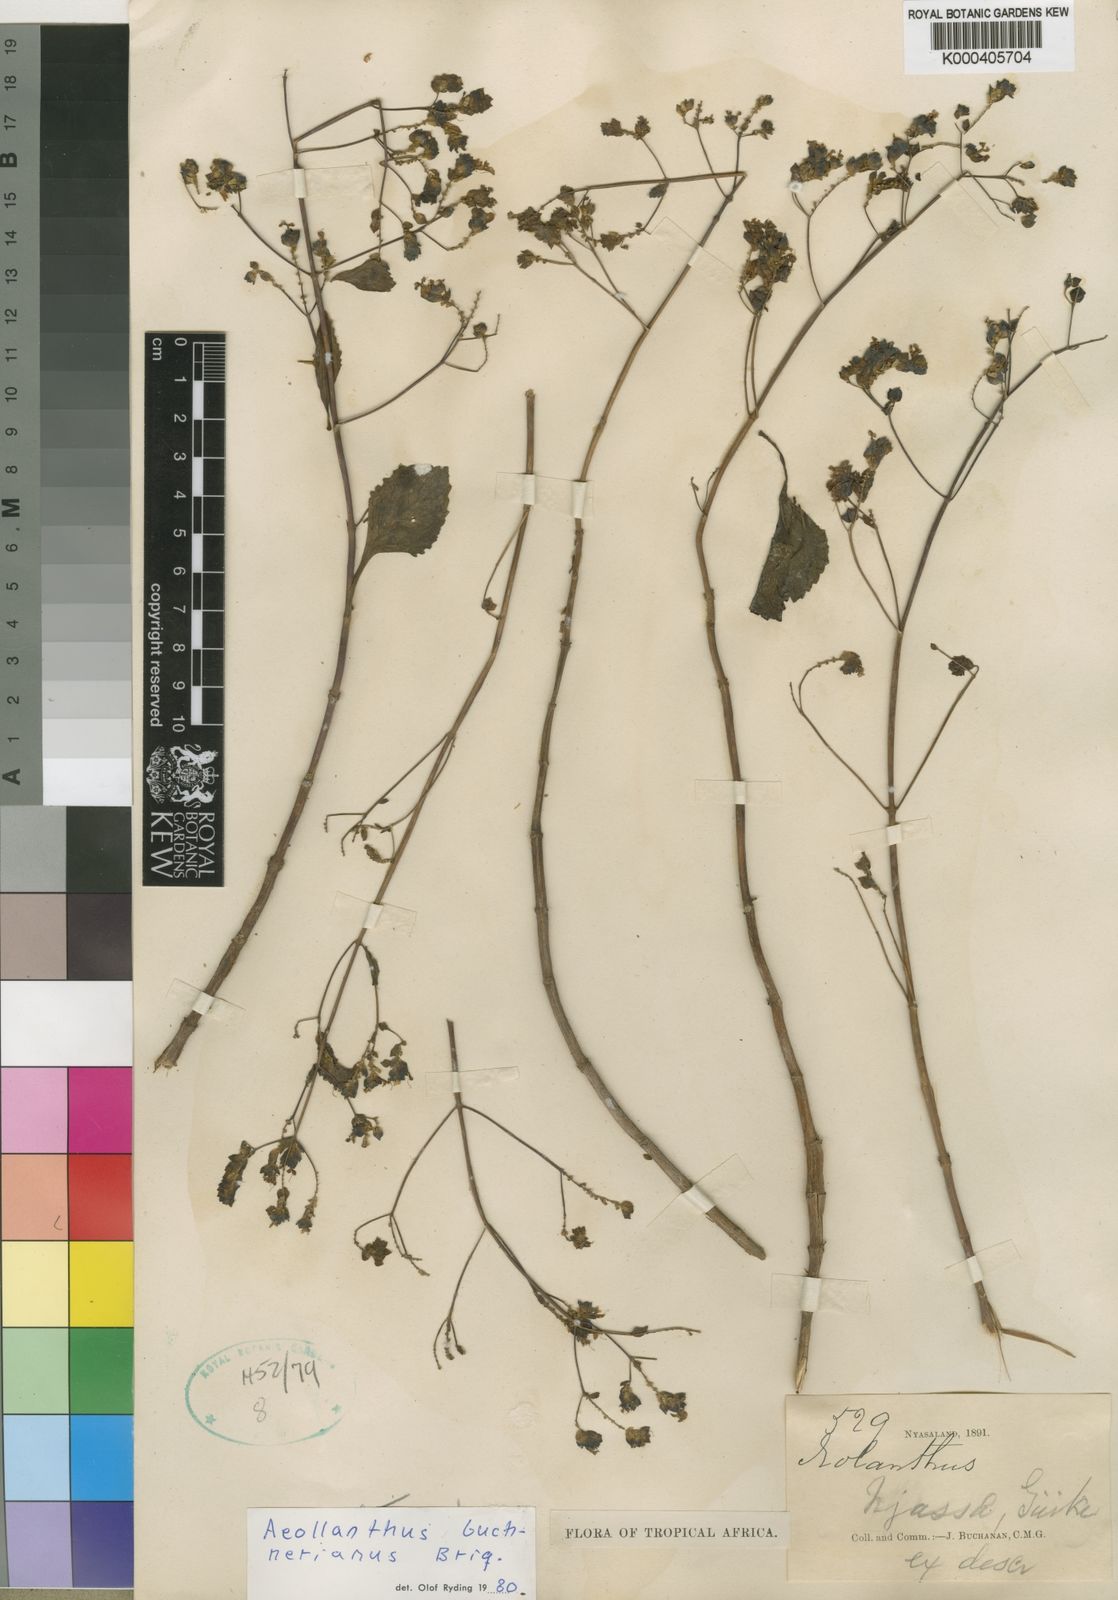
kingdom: Plantae
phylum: Tracheophyta
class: Magnoliopsida
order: Lamiales
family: Lamiaceae
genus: Aeollanthus
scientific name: Aeollanthus buchnerianus
